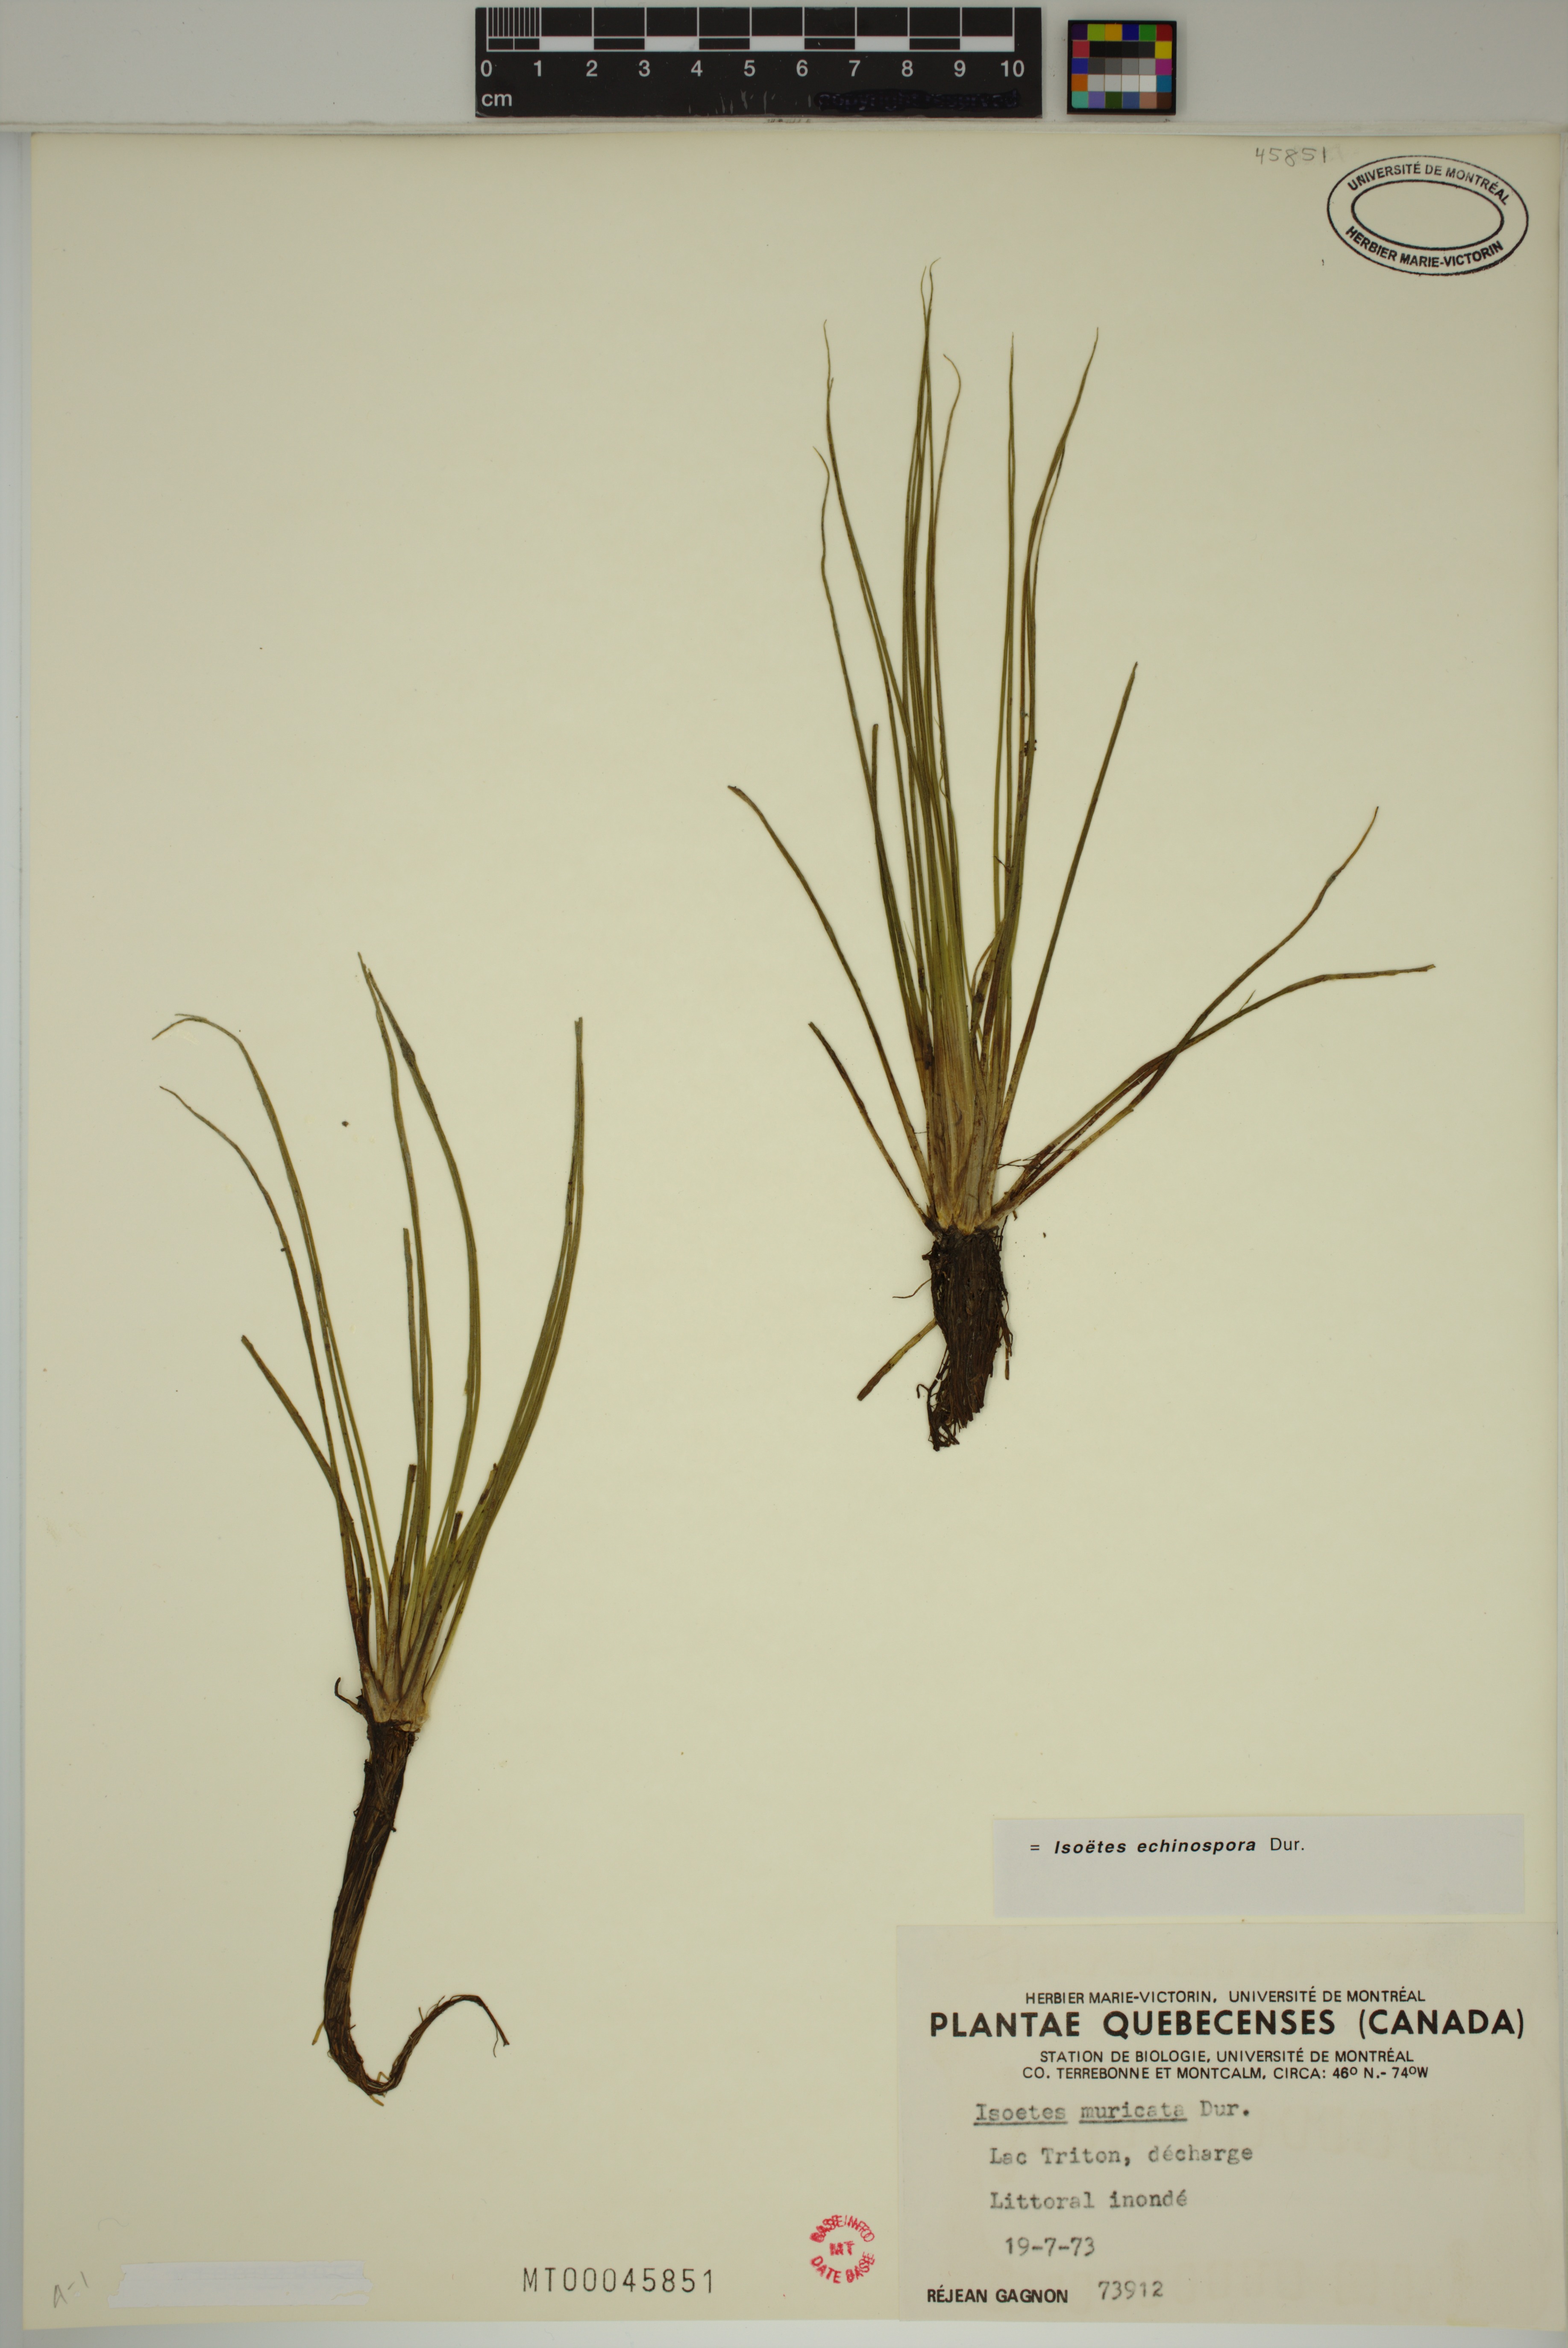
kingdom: Plantae
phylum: Tracheophyta
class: Lycopodiopsida
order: Isoetales
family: Isoetaceae
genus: Isoetes
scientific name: Isoetes echinospora
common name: Spring quillwort
